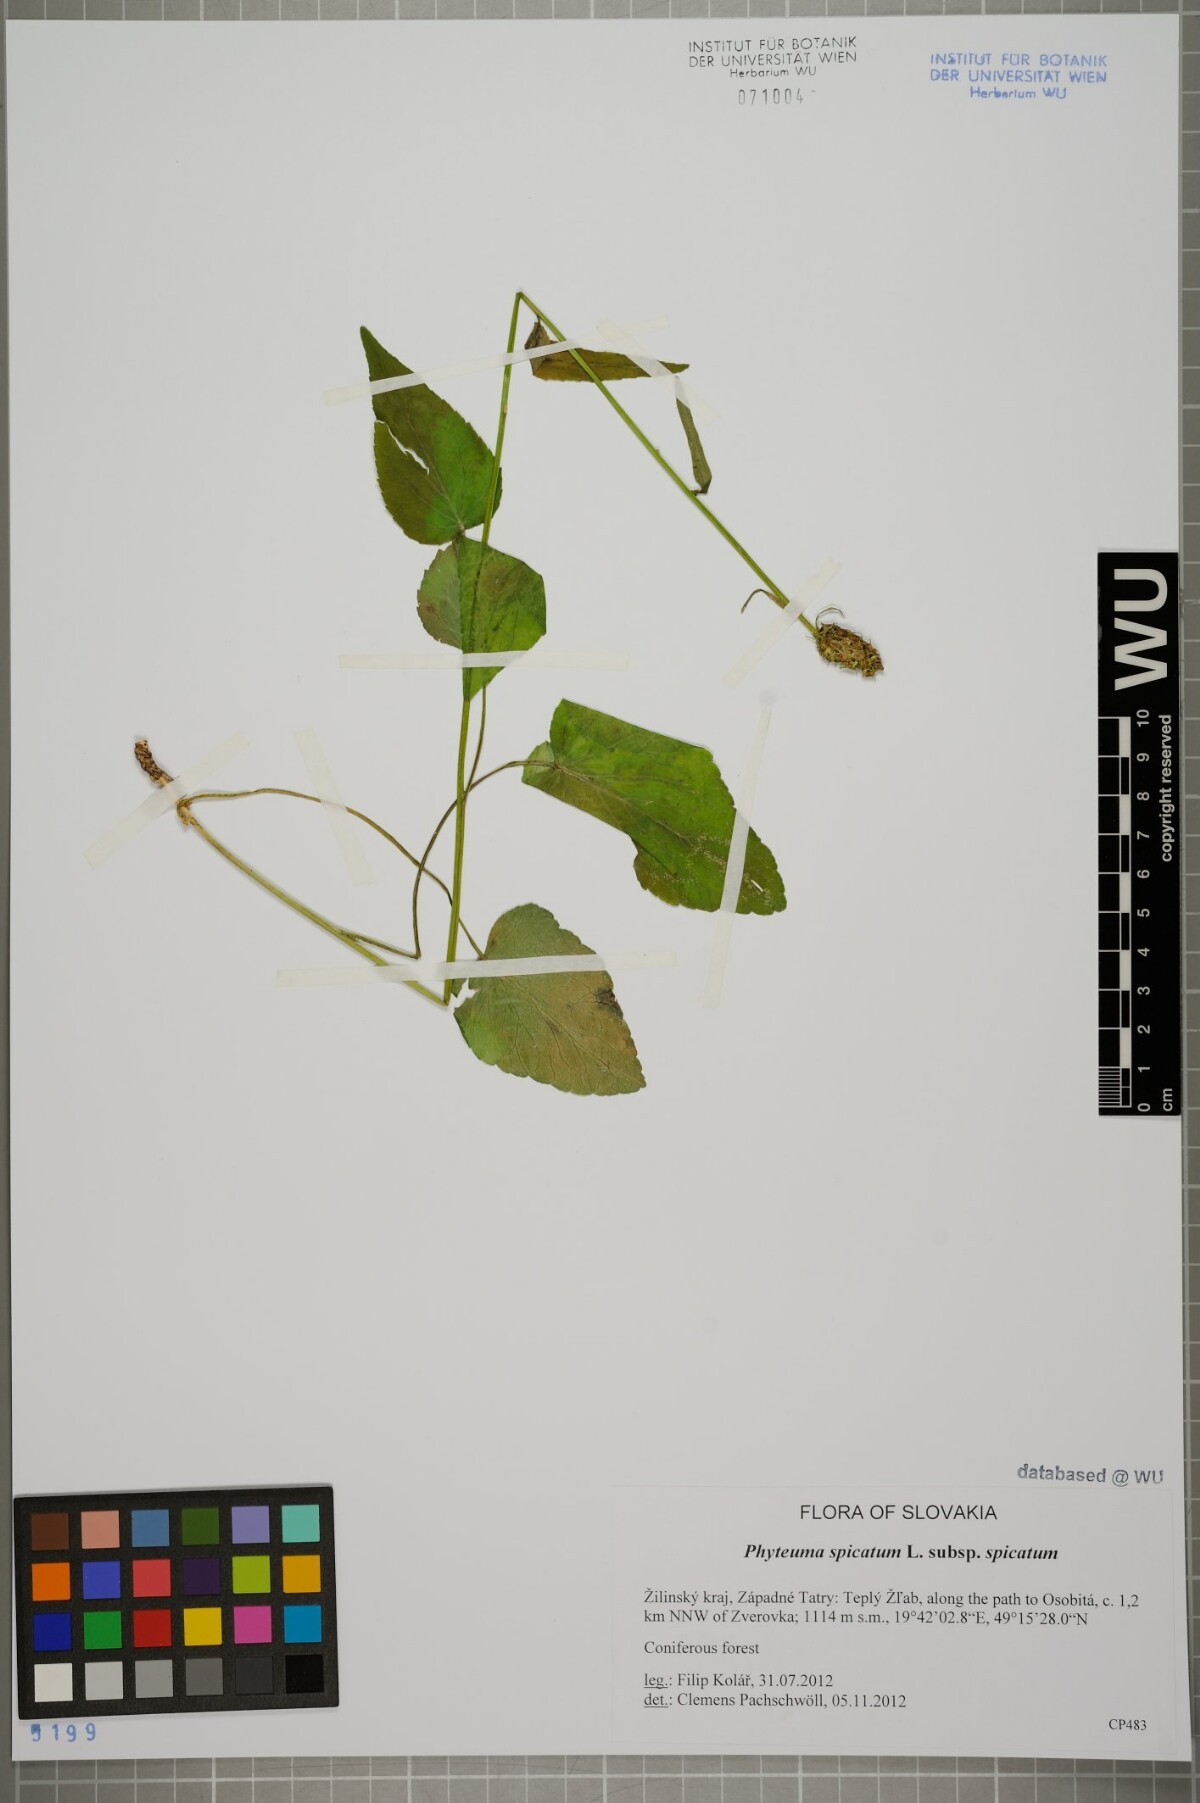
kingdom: Plantae
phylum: Tracheophyta
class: Magnoliopsida
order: Asterales
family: Campanulaceae
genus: Phyteuma
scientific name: Phyteuma spicatum
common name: Spiked rampion
